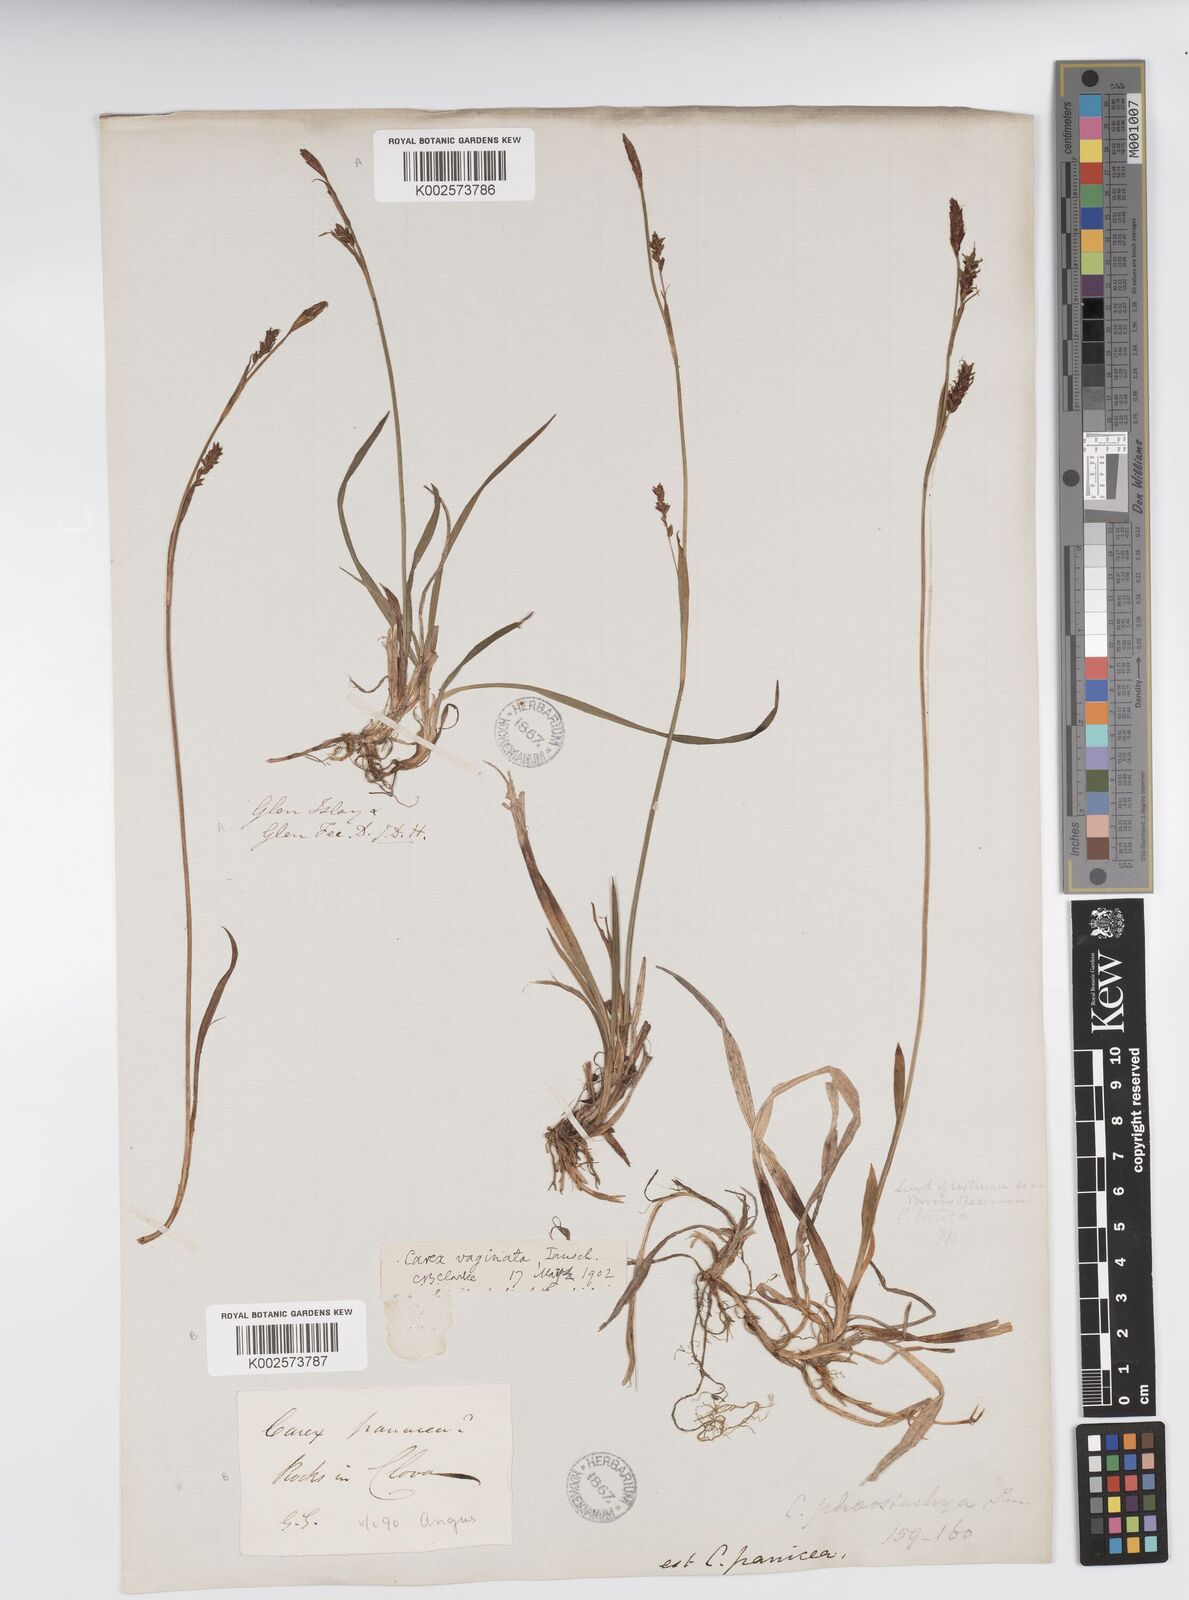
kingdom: Plantae
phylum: Tracheophyta
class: Liliopsida
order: Poales
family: Cyperaceae
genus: Carex
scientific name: Carex vaginata
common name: Sheathed sedge
